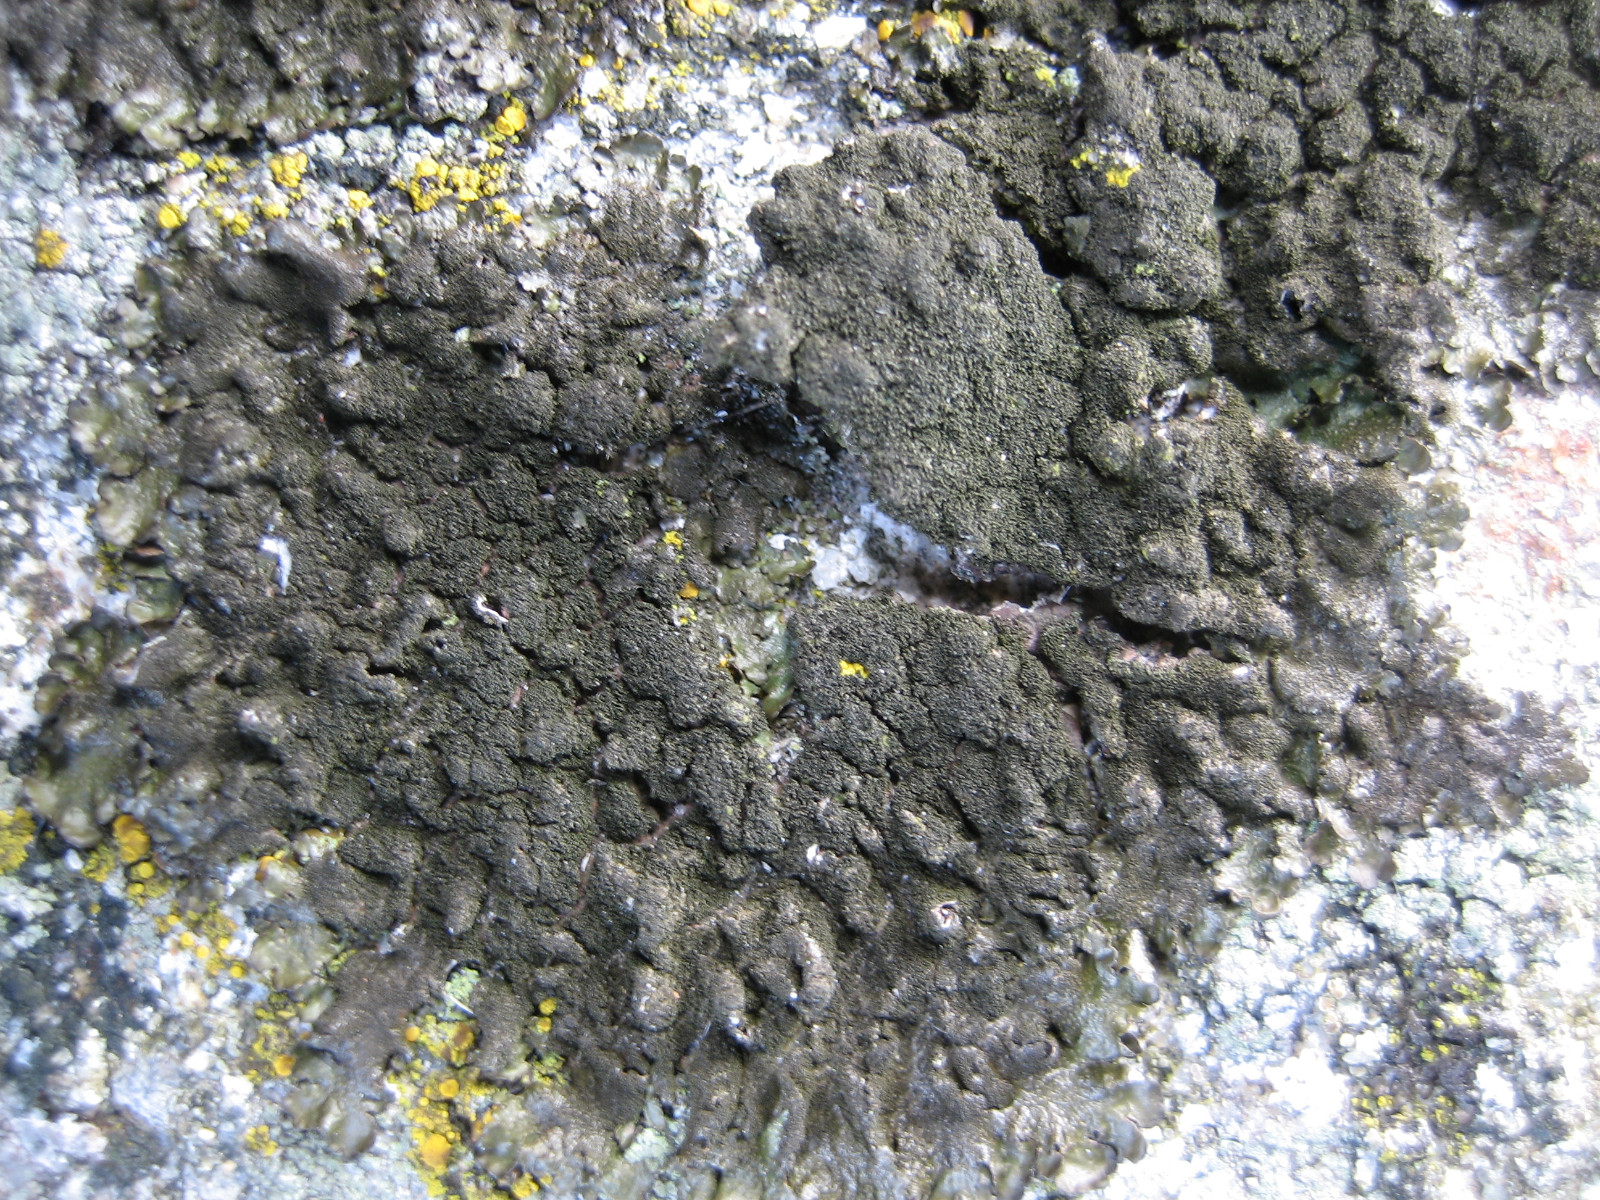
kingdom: Fungi
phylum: Ascomycota
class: Lecanoromycetes
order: Lecanorales
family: Parmeliaceae
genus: Melanelixia
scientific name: Melanelixia fuliginosa
